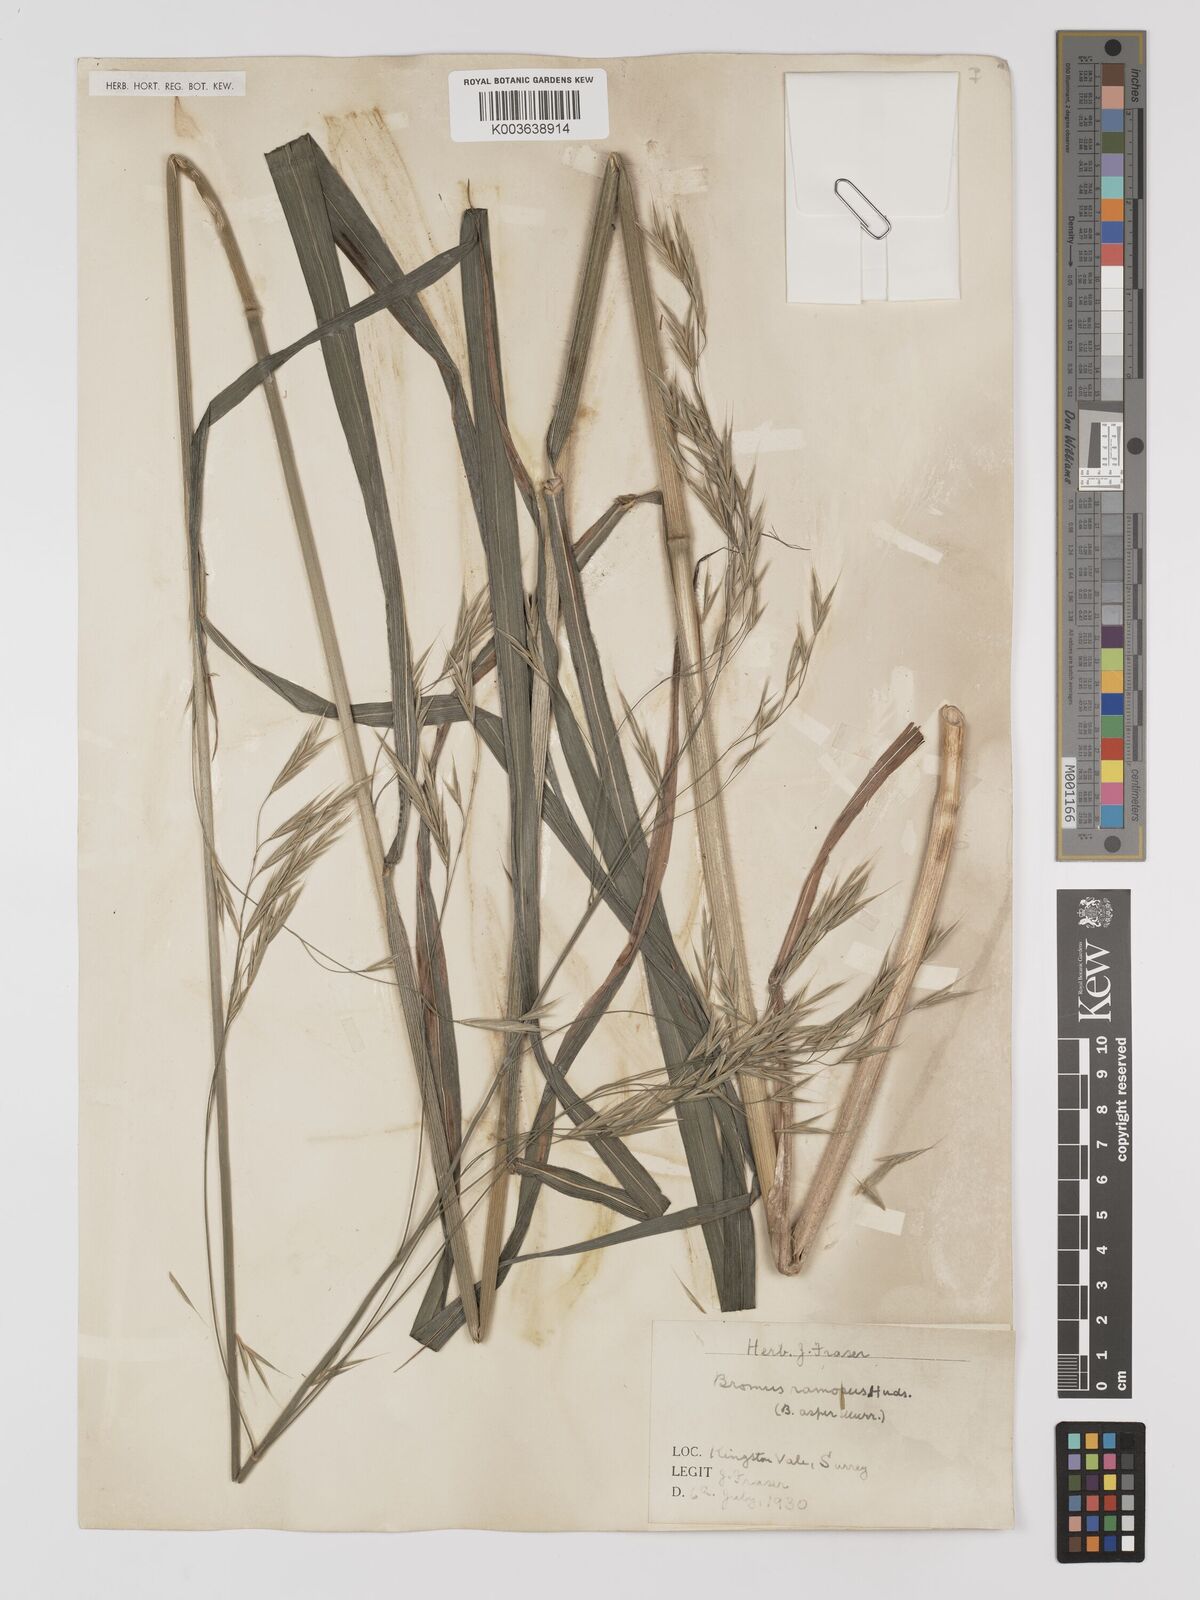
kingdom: Plantae
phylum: Tracheophyta
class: Liliopsida
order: Poales
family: Poaceae
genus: Bromus
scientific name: Bromus ramosus
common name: Hairy brome
